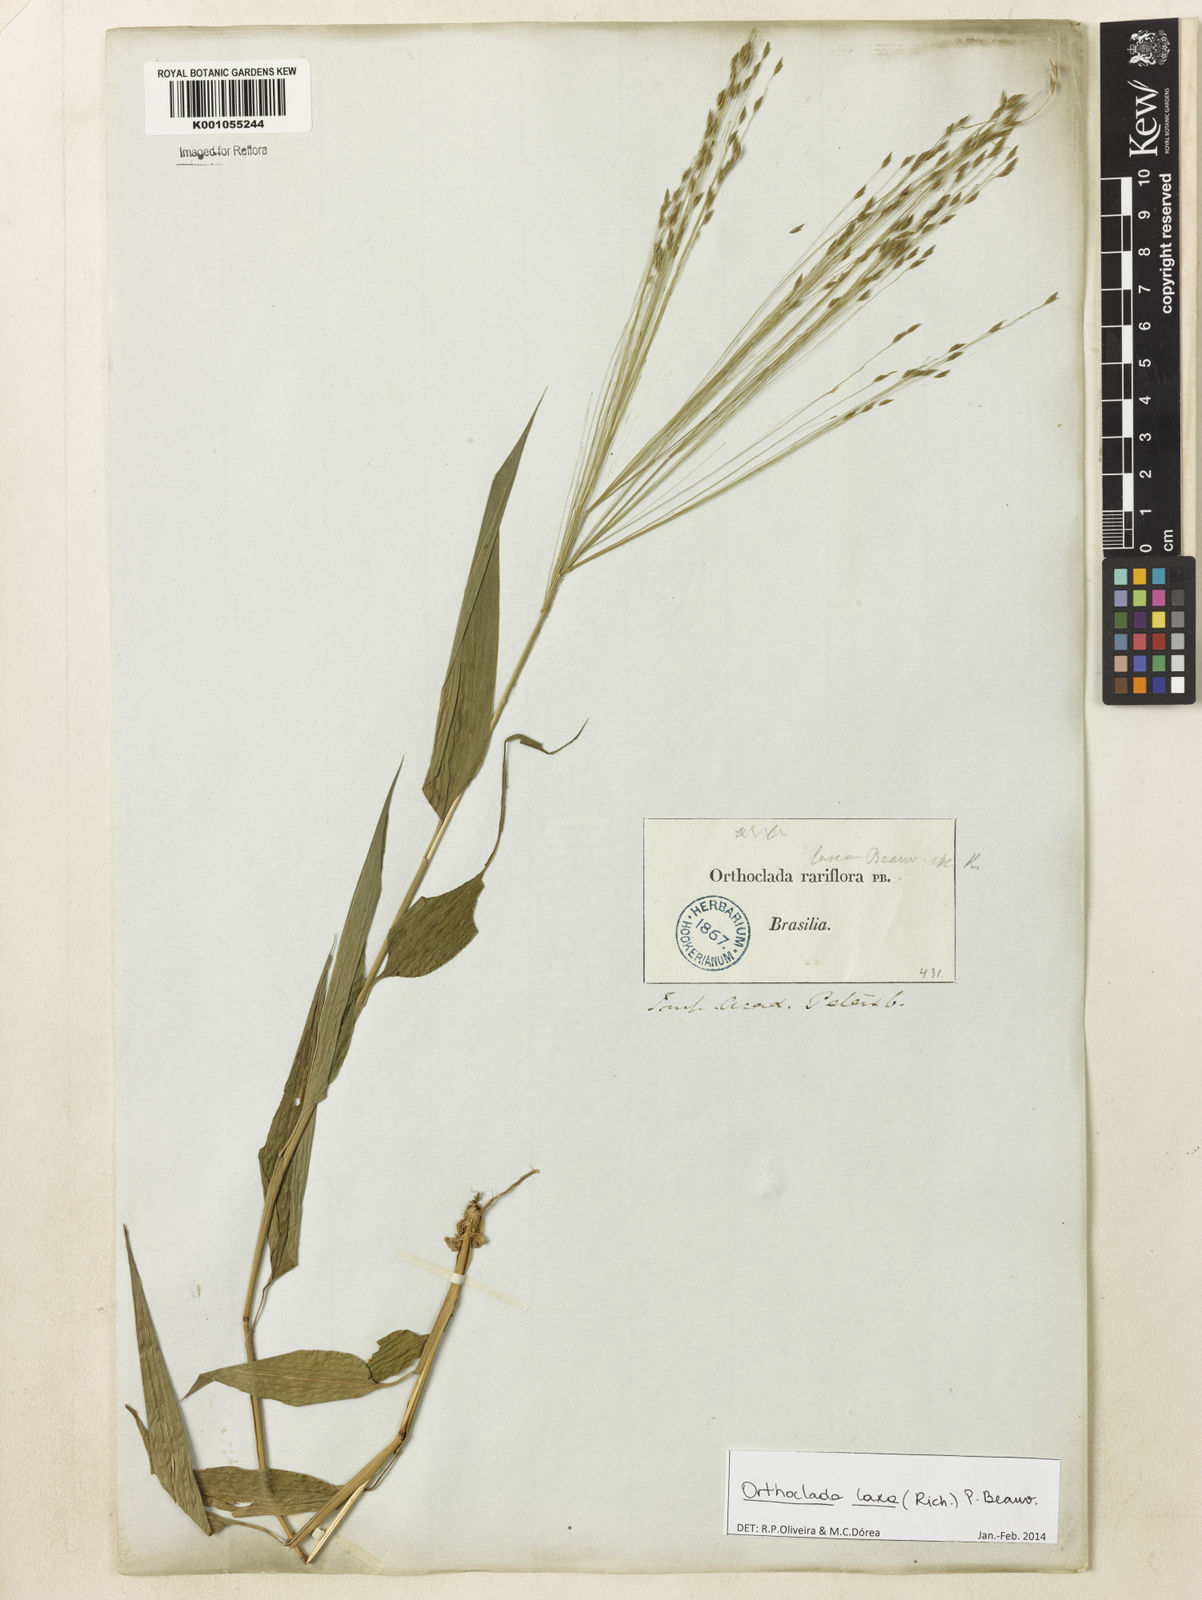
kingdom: Plantae
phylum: Tracheophyta
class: Liliopsida
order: Poales
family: Poaceae
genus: Orthoclada
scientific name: Orthoclada laxa
